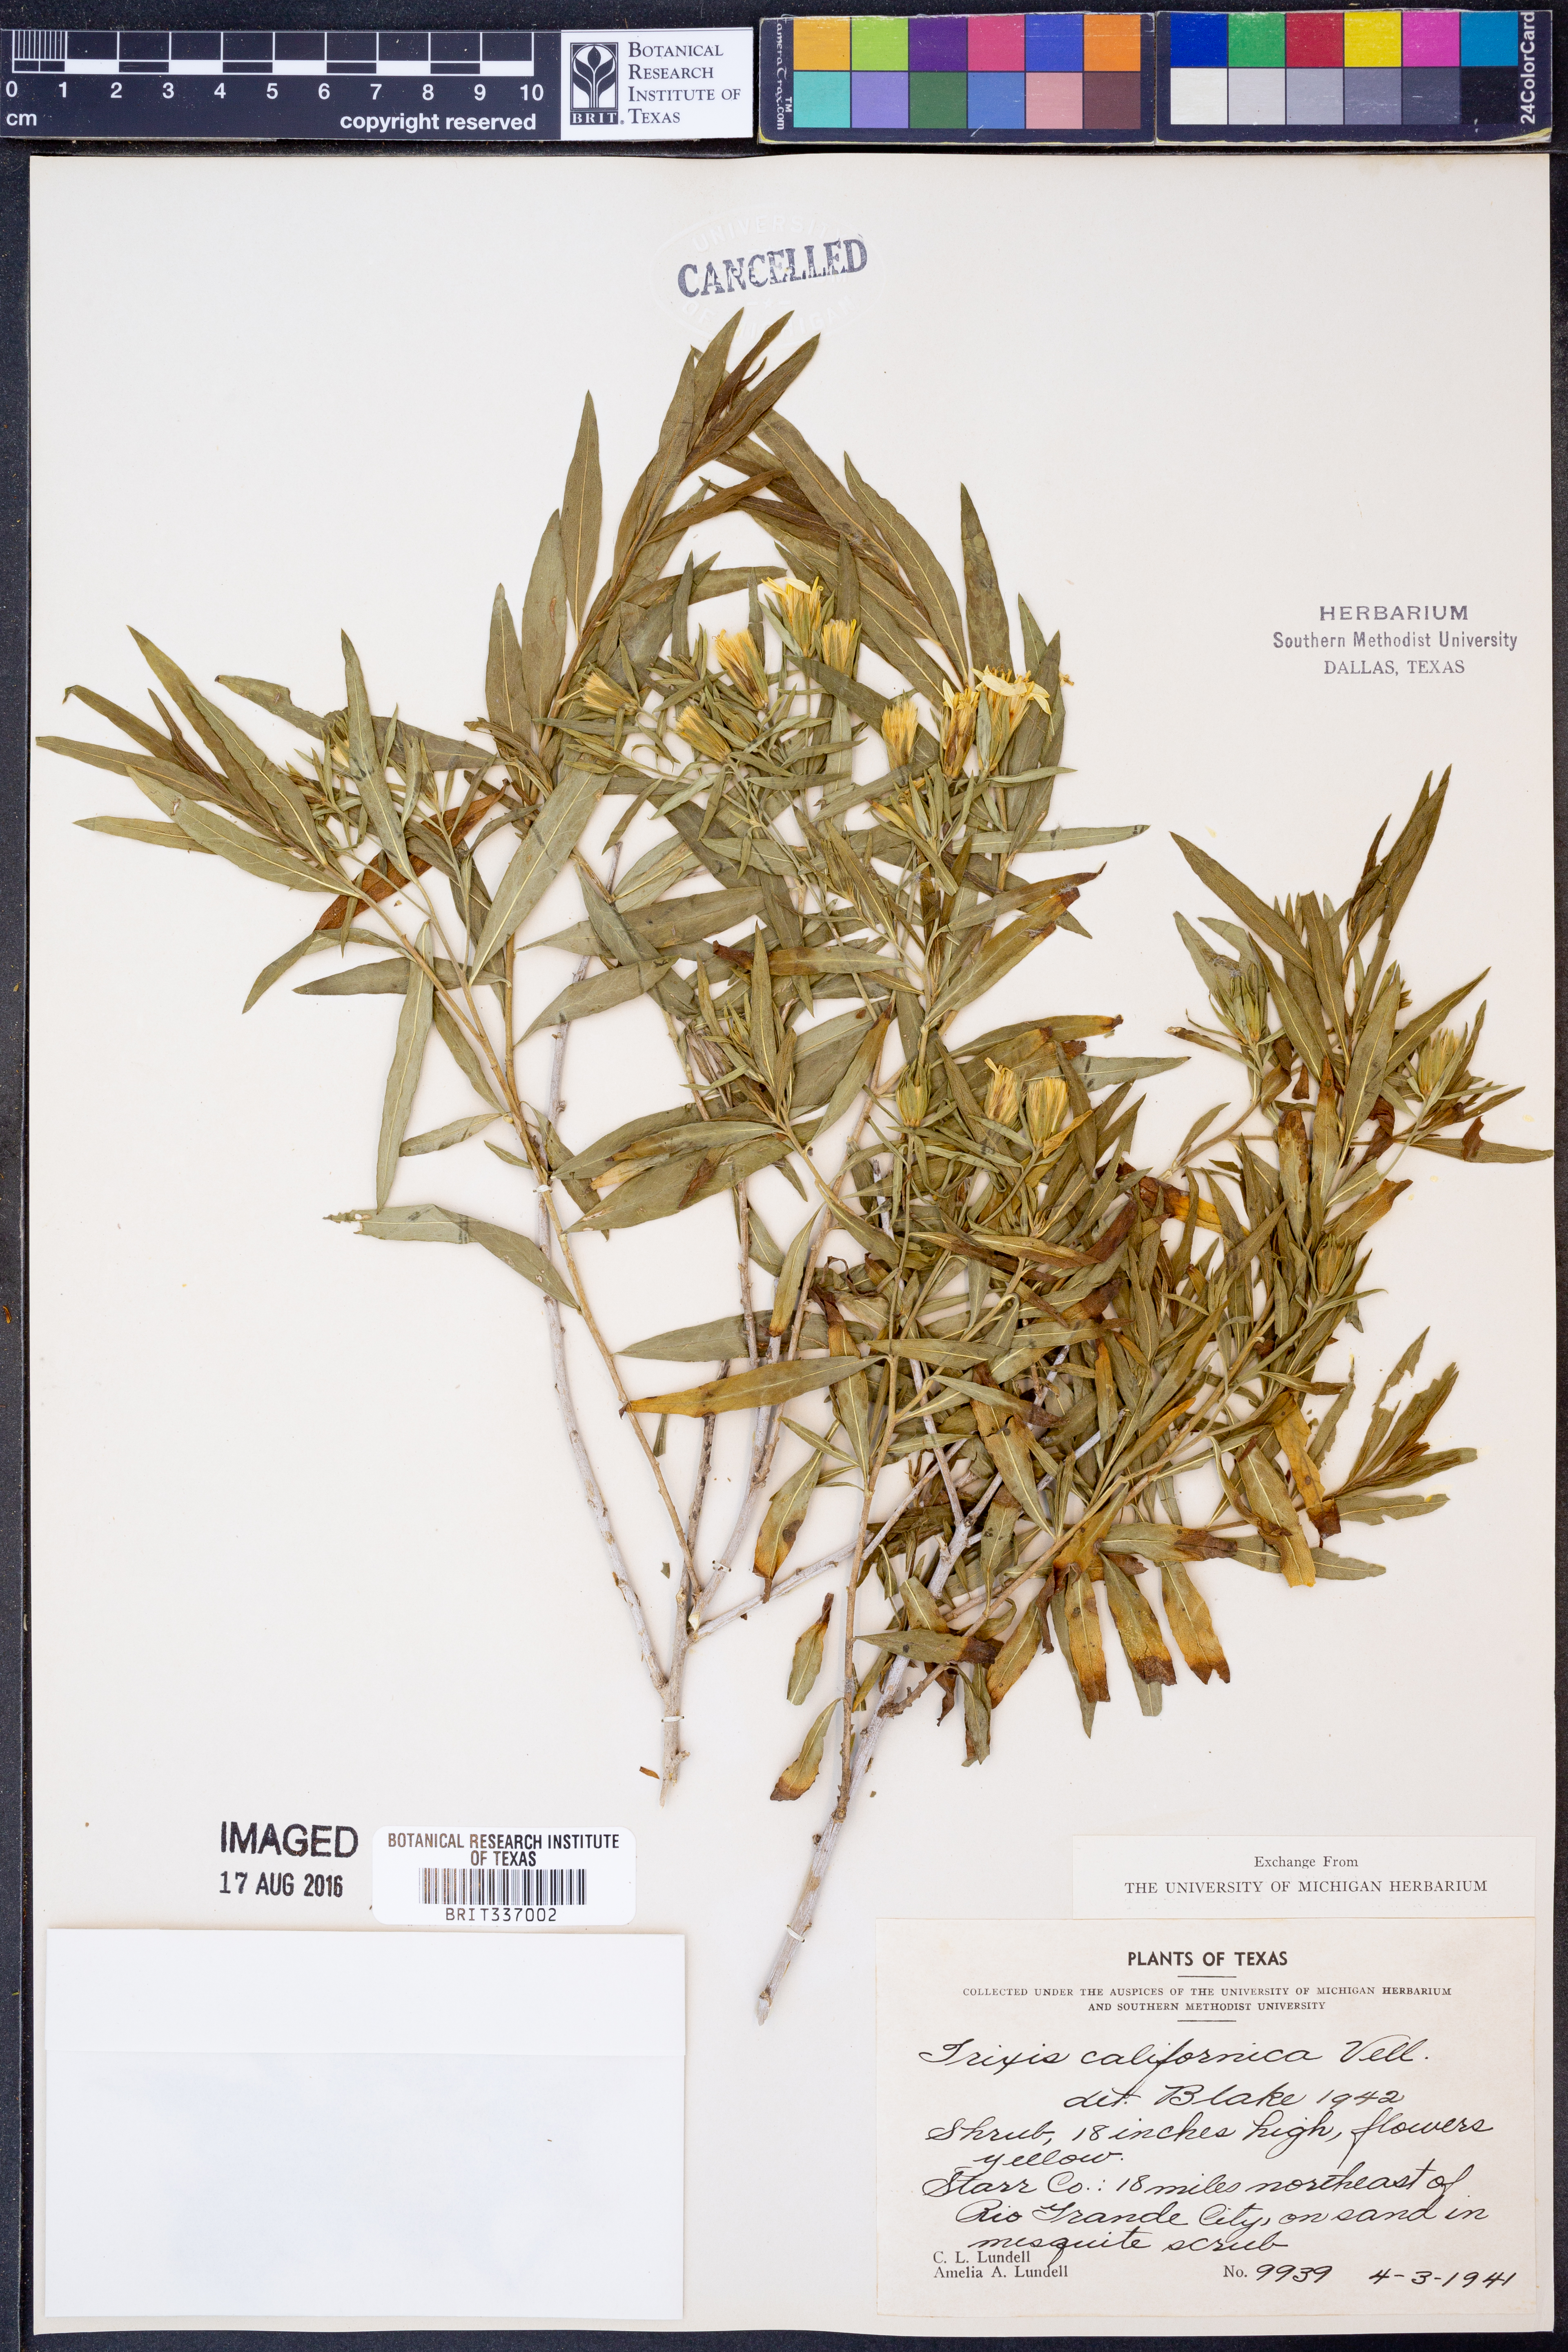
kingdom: Plantae
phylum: Tracheophyta
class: Magnoliopsida
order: Asterales
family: Asteraceae
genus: Trixis
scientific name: Trixis californica
